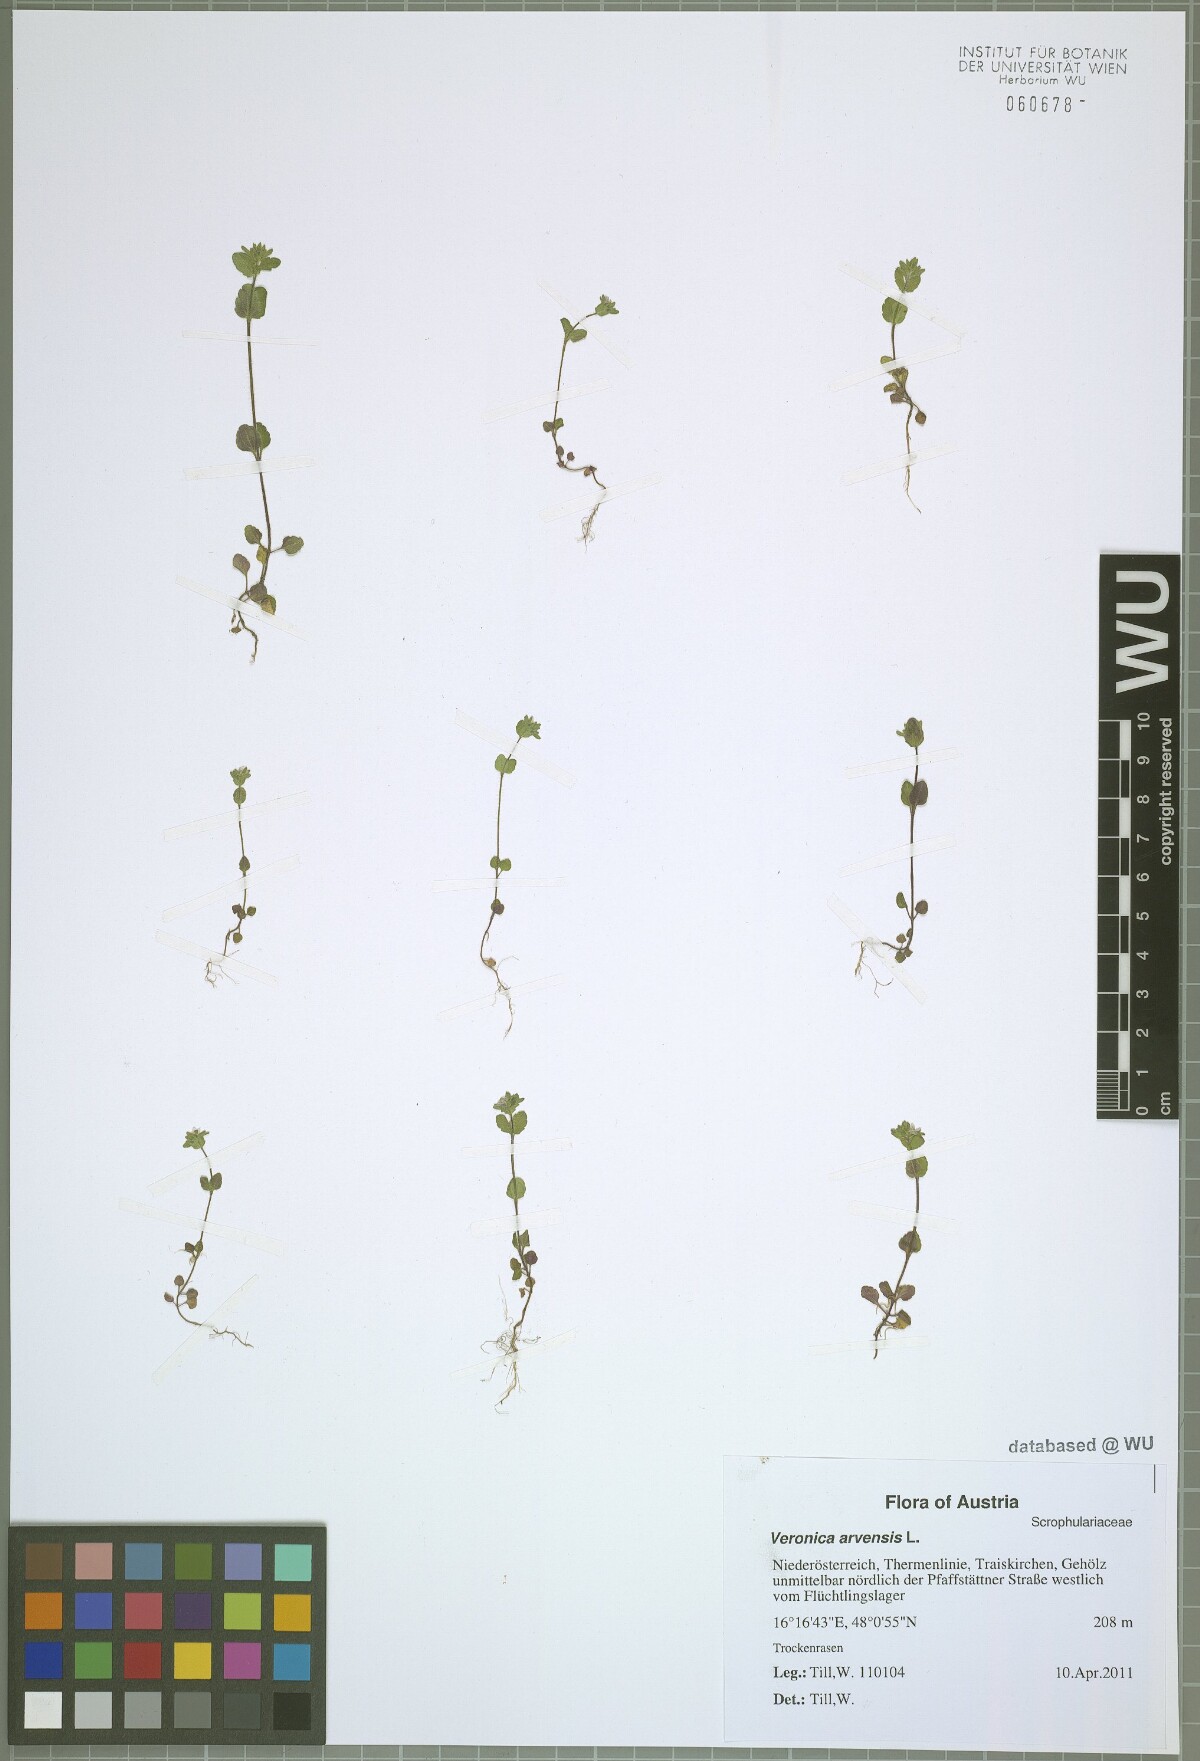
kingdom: Plantae
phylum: Tracheophyta
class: Magnoliopsida
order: Lamiales
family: Plantaginaceae
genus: Veronica
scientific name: Veronica arvensis
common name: Corn speedwell
